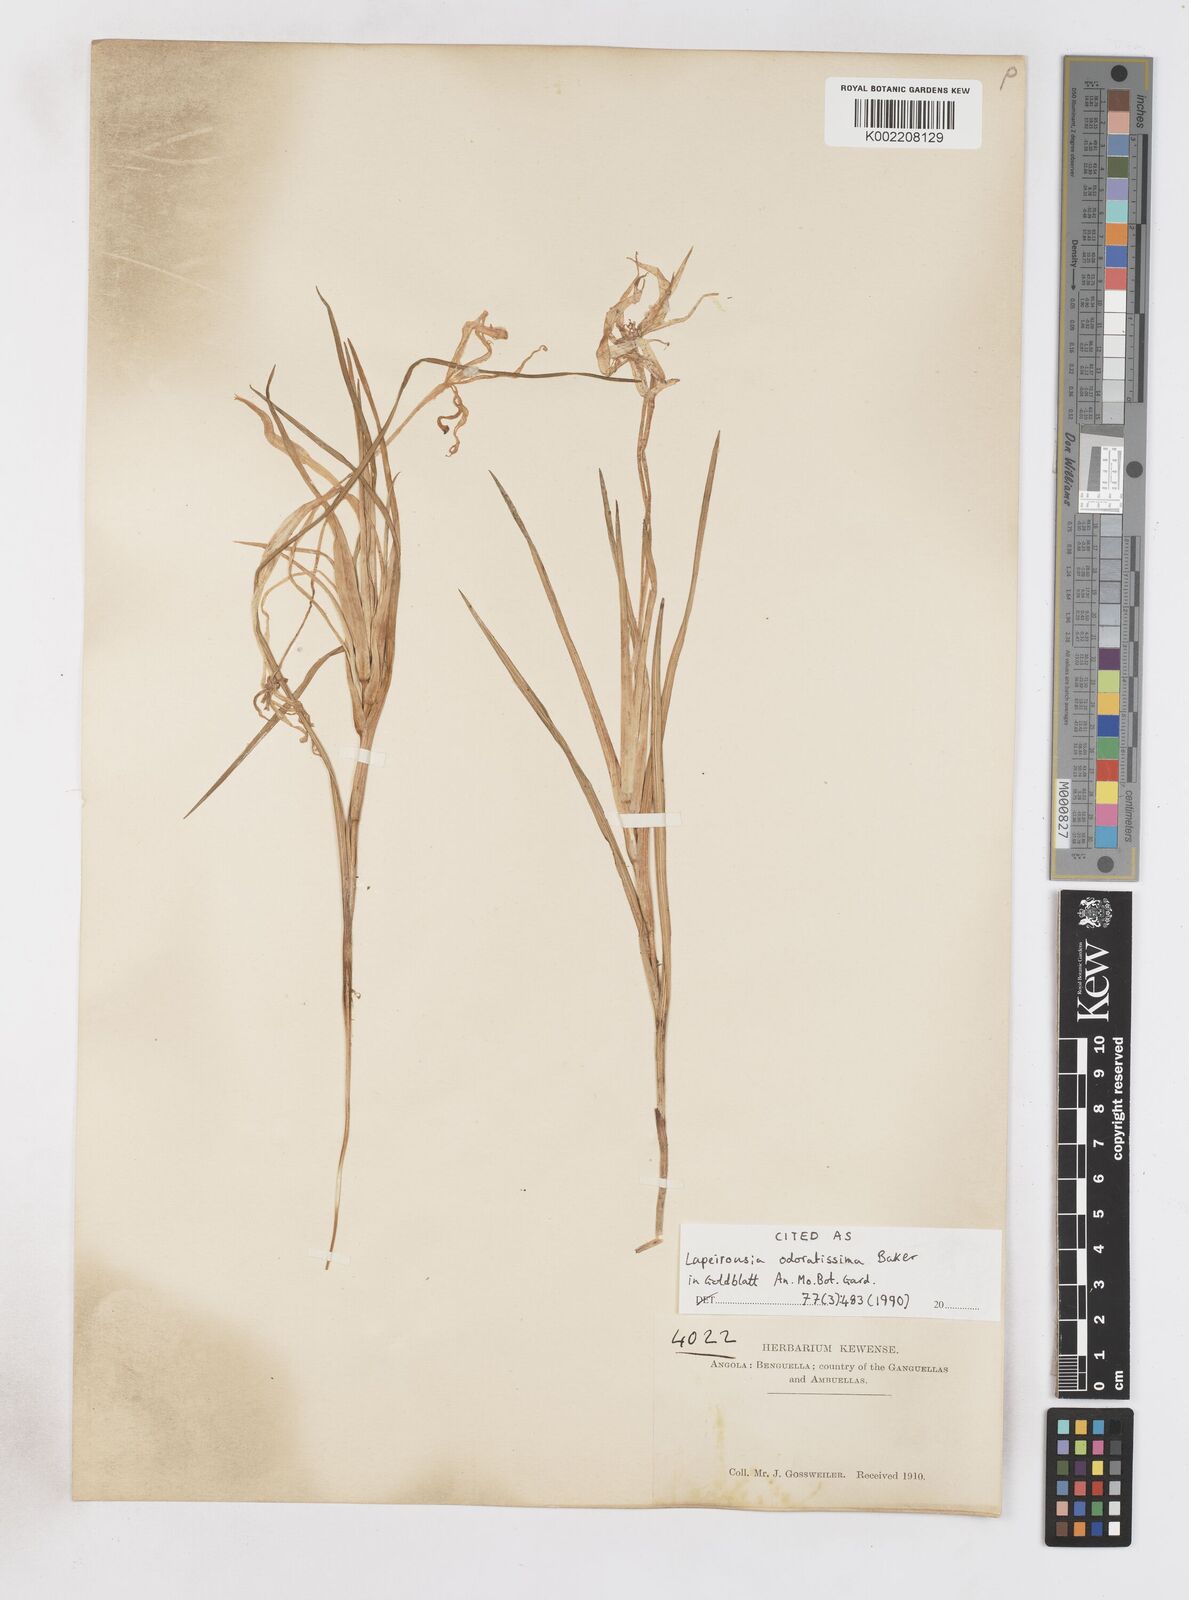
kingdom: Plantae
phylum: Tracheophyta
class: Liliopsida
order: Asparagales
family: Iridaceae
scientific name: Iridaceae
